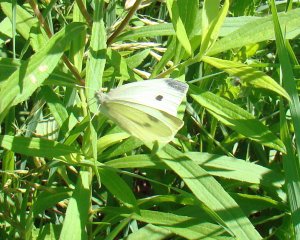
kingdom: Animalia
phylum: Arthropoda
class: Insecta
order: Lepidoptera
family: Pieridae
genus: Pieris
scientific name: Pieris rapae
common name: Cabbage White
